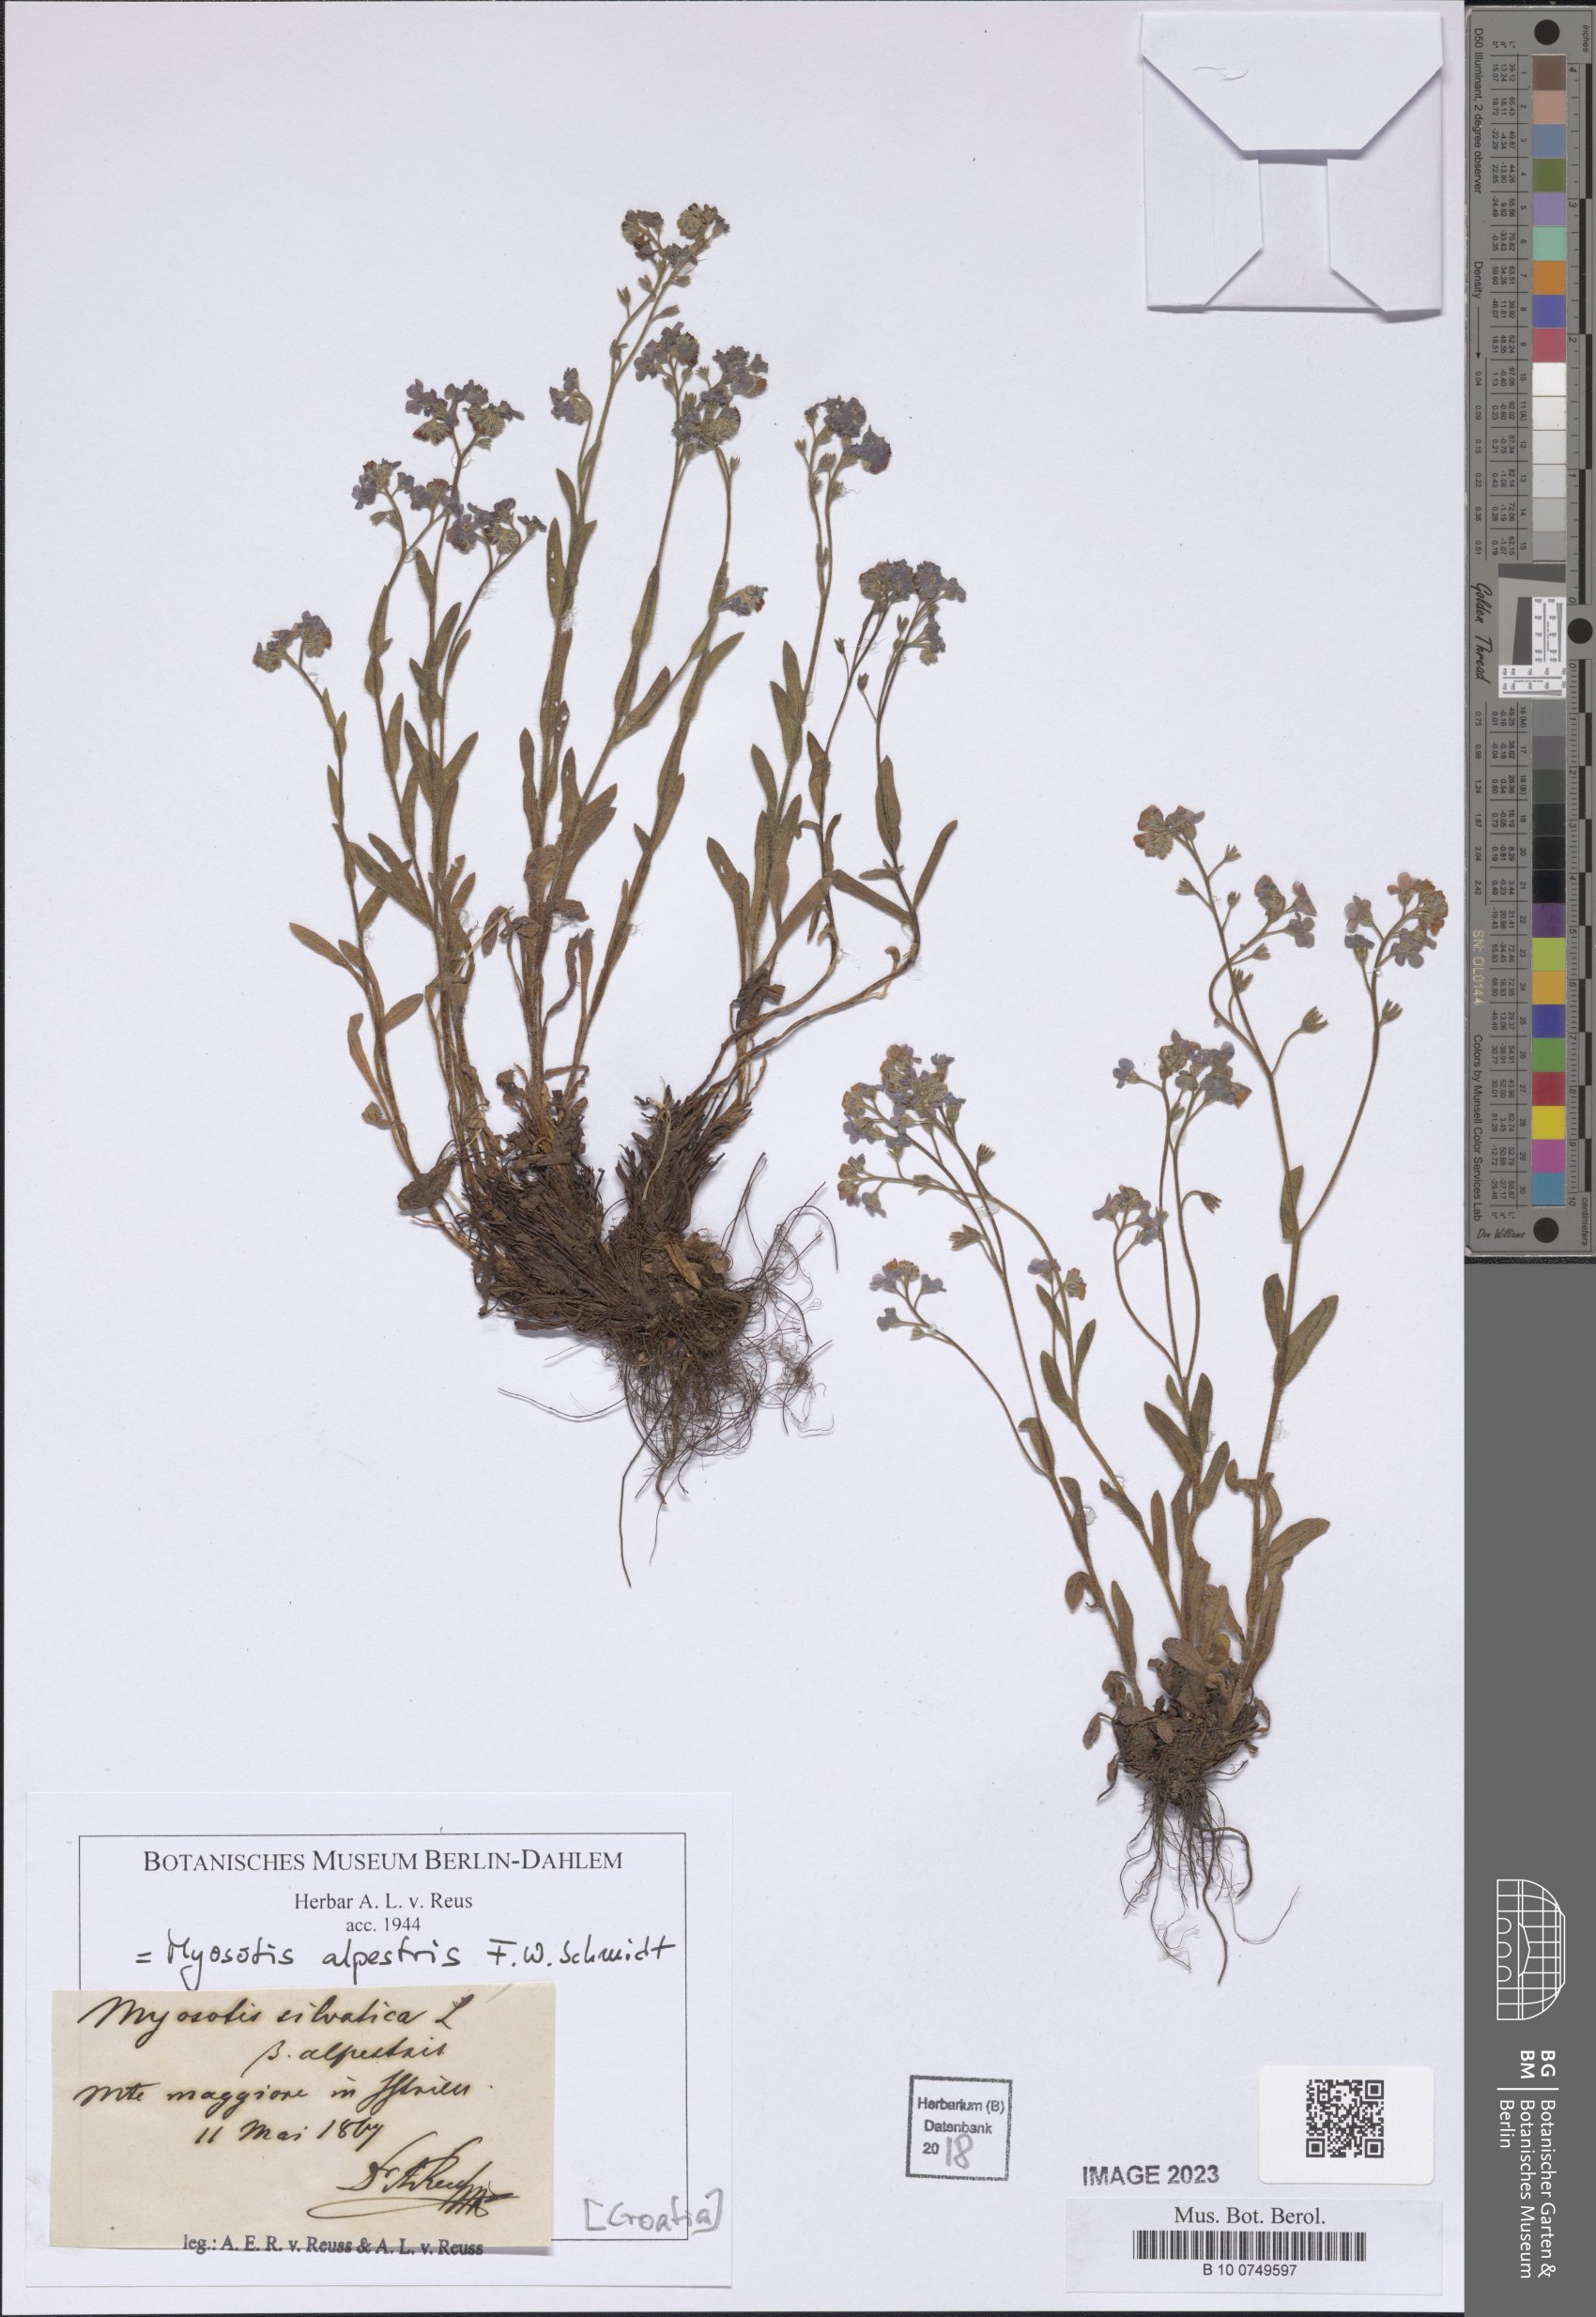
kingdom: Plantae
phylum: Tracheophyta
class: Magnoliopsida
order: Boraginales
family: Boraginaceae
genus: Myosotis
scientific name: Myosotis alpestris
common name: Alpine forget-me-not
